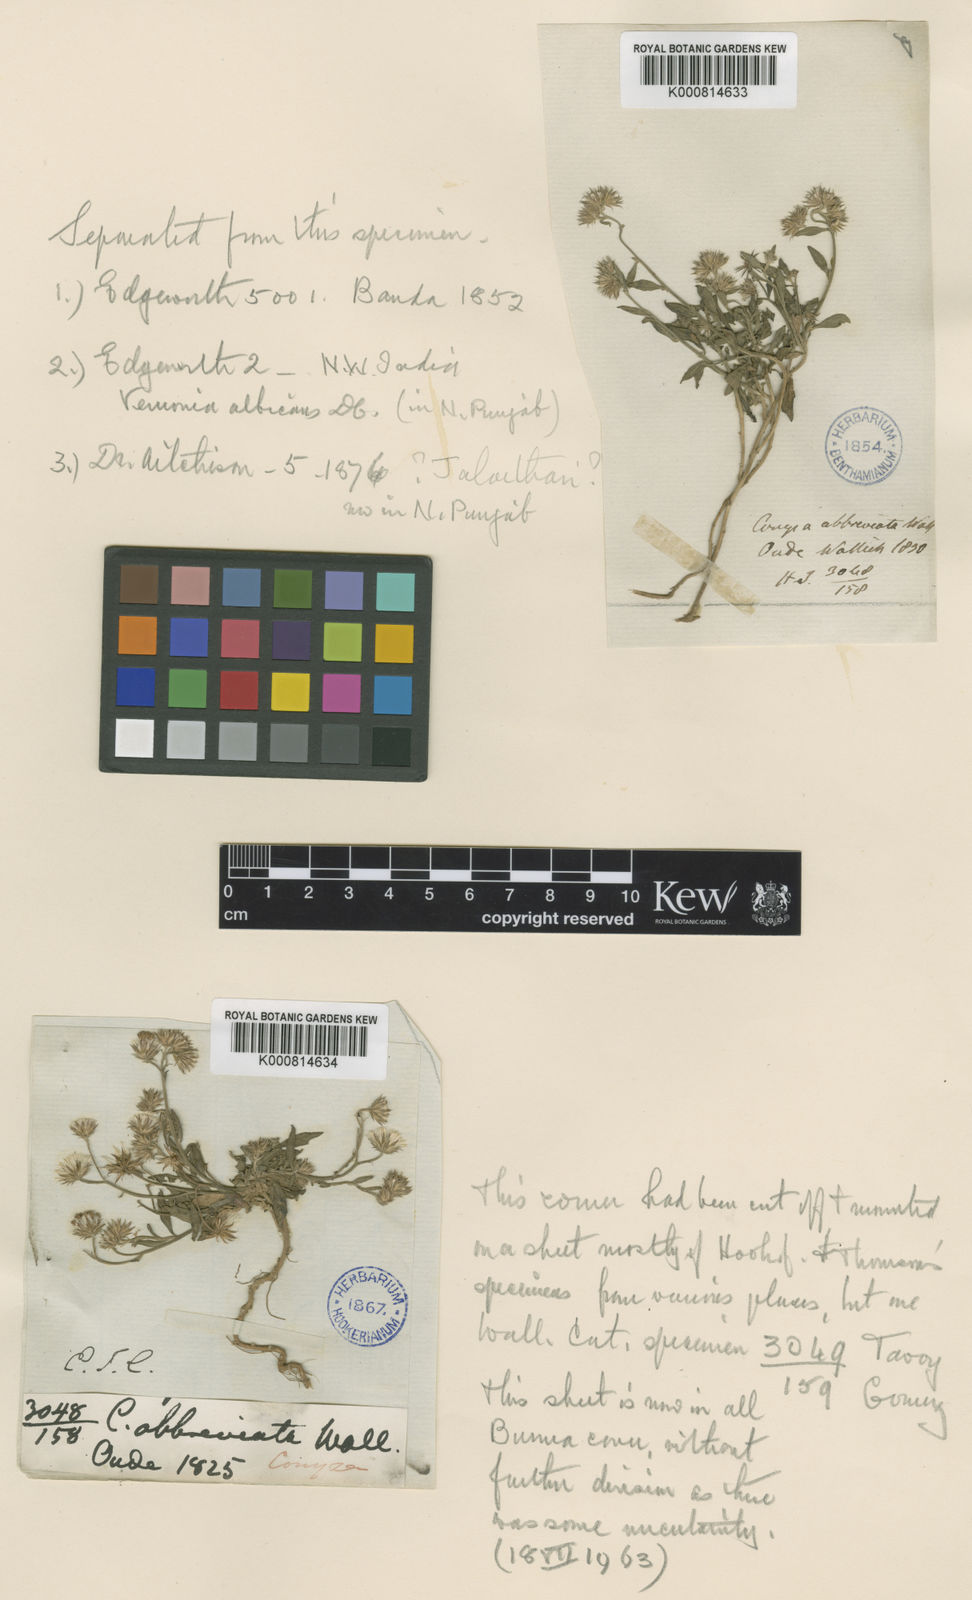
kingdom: Plantae
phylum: Tracheophyta
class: Magnoliopsida
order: Asterales
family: Asteraceae
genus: Cyanthillium
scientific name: Cyanthillium cinereum
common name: Little ironweed
